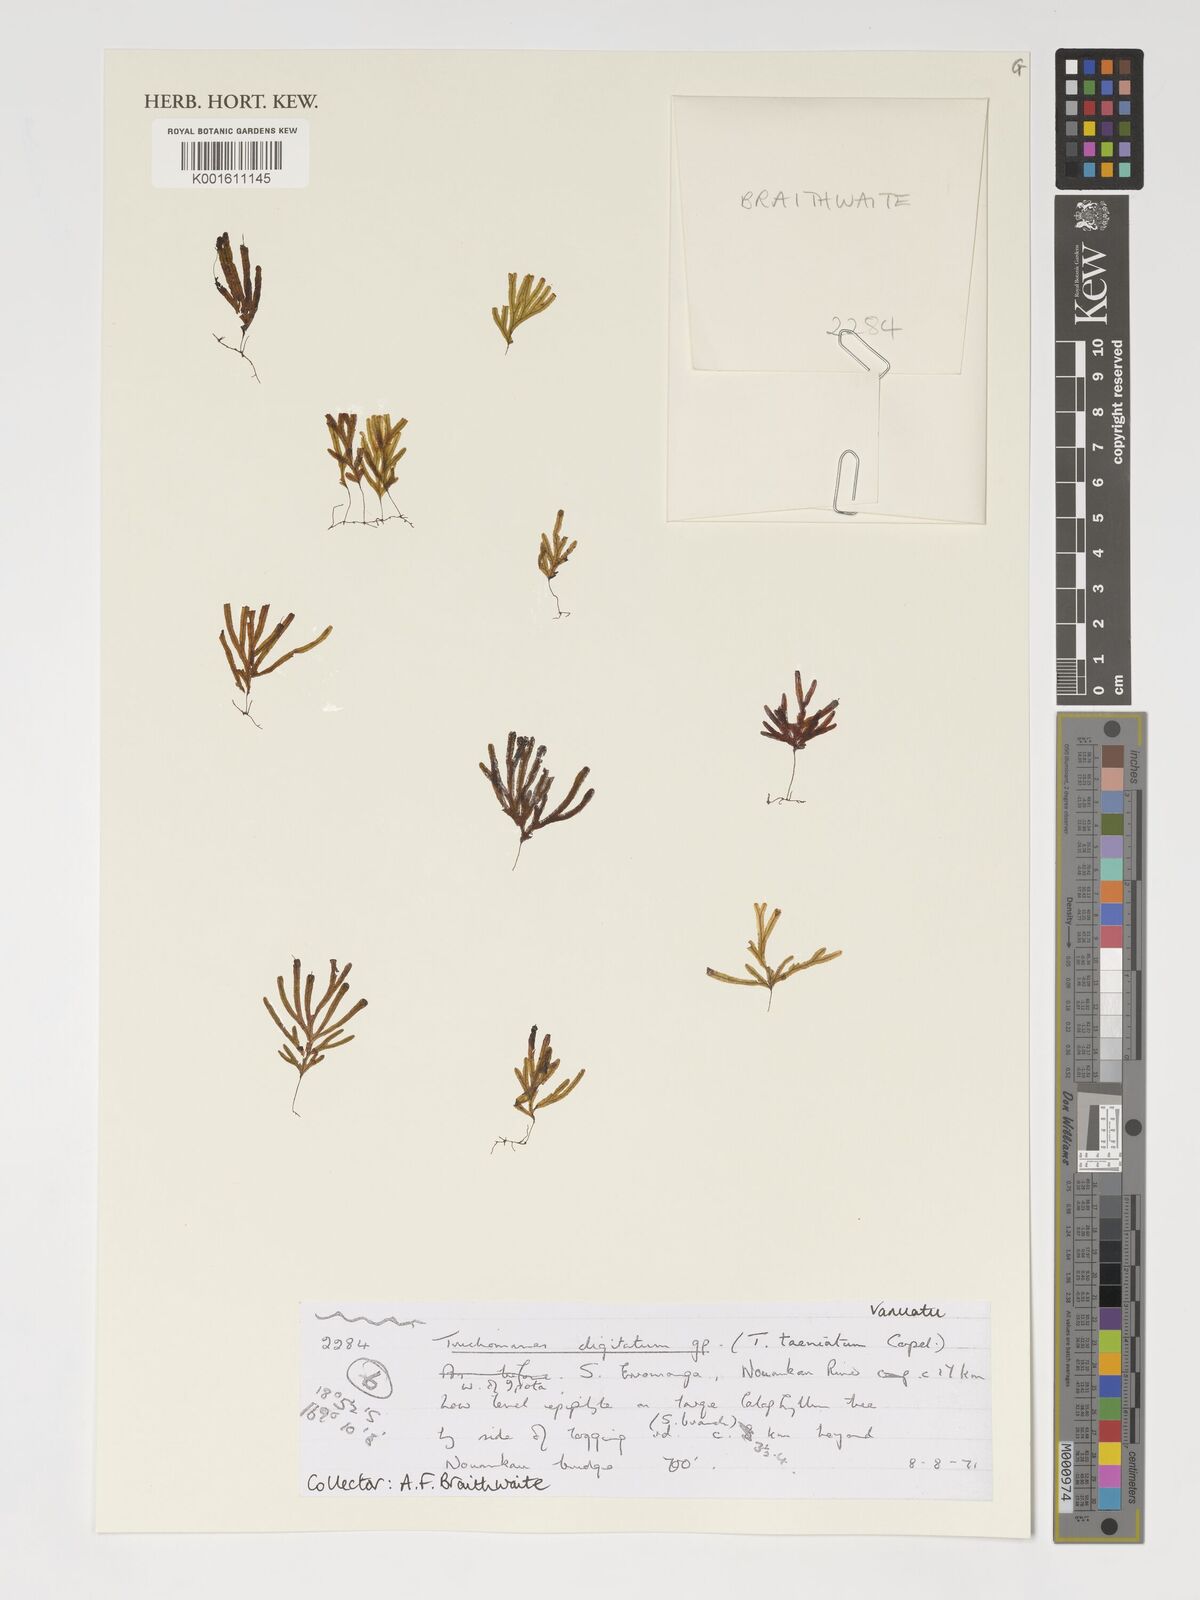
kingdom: Plantae
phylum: Tracheophyta
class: Polypodiopsida
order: Hymenophyllales
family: Hymenophyllaceae
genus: Crepidomanes
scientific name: Crepidomanes schmidianum
